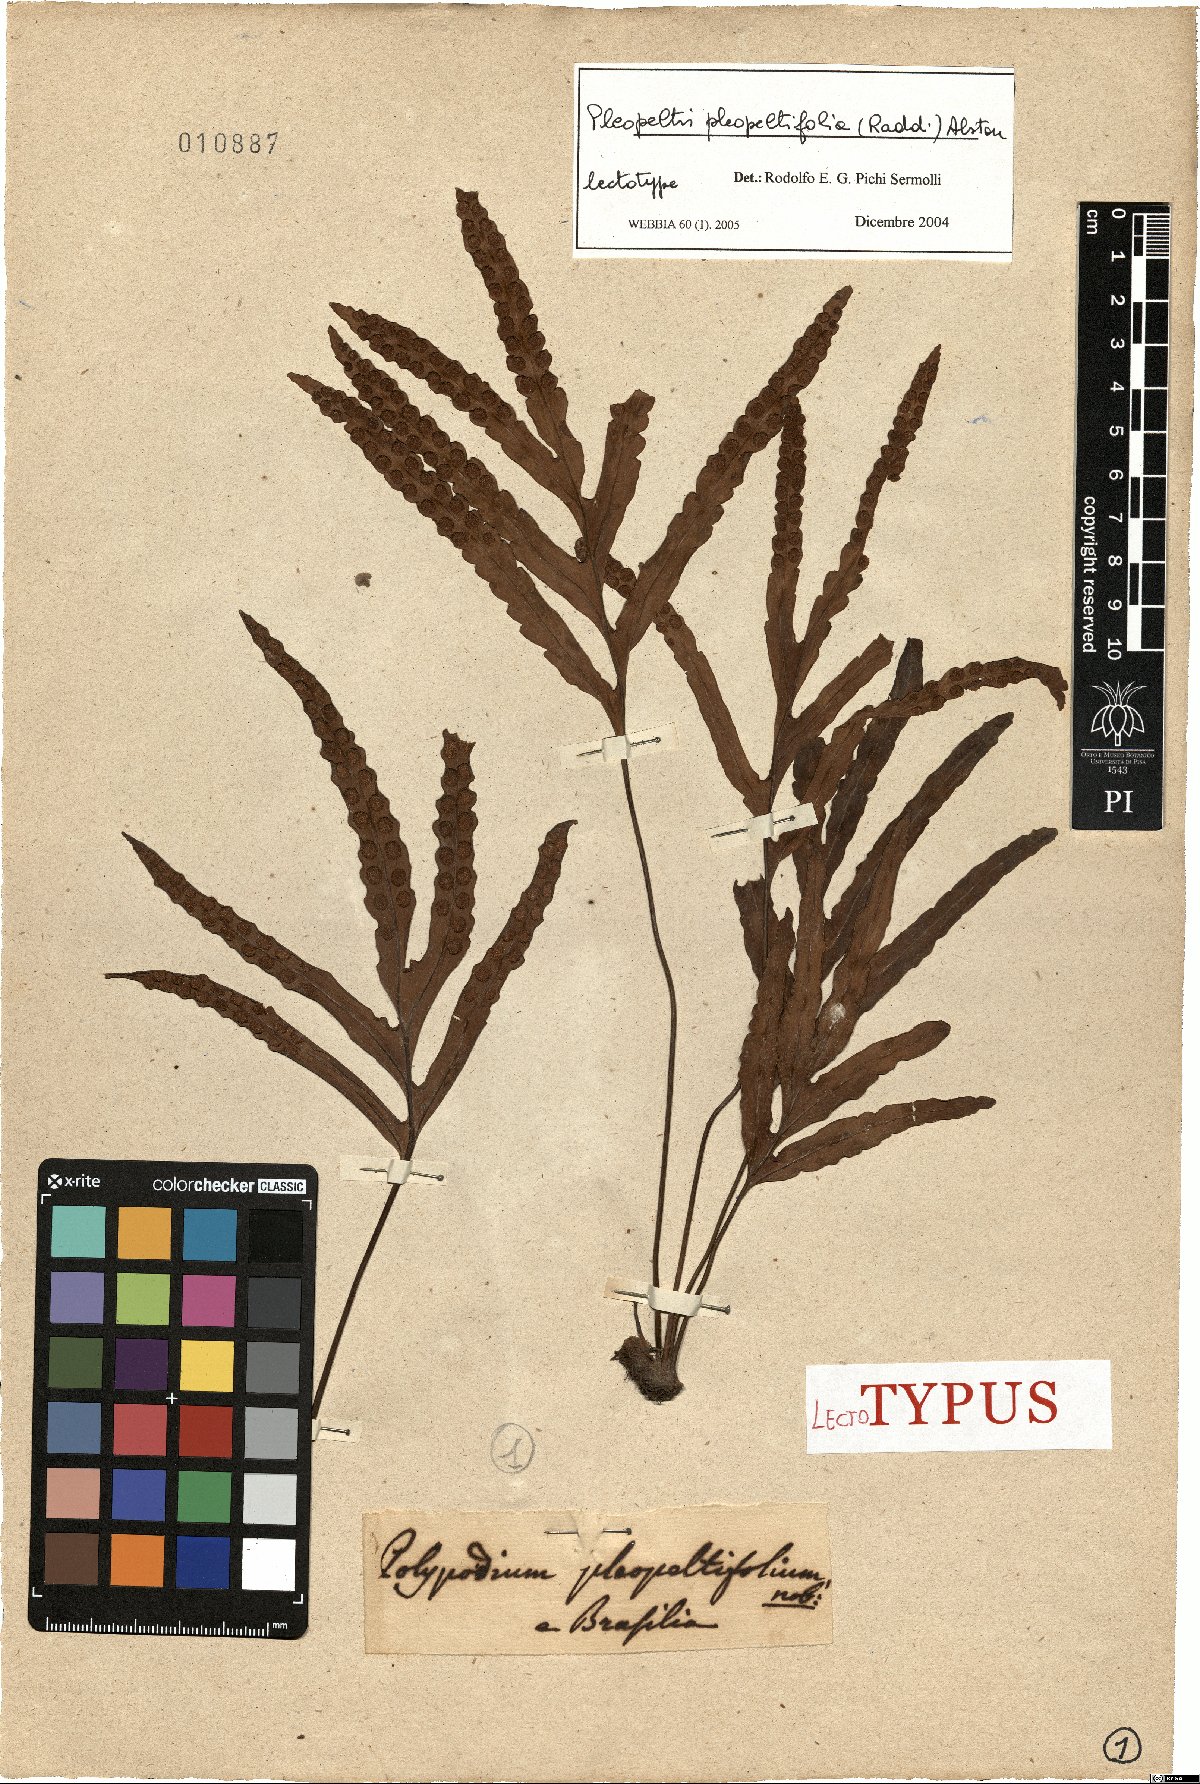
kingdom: Plantae
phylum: Tracheophyta
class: Polypodiopsida
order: Polypodiales
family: Polypodiaceae
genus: Pleopeltis
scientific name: Pleopeltis pleopeltifolia
